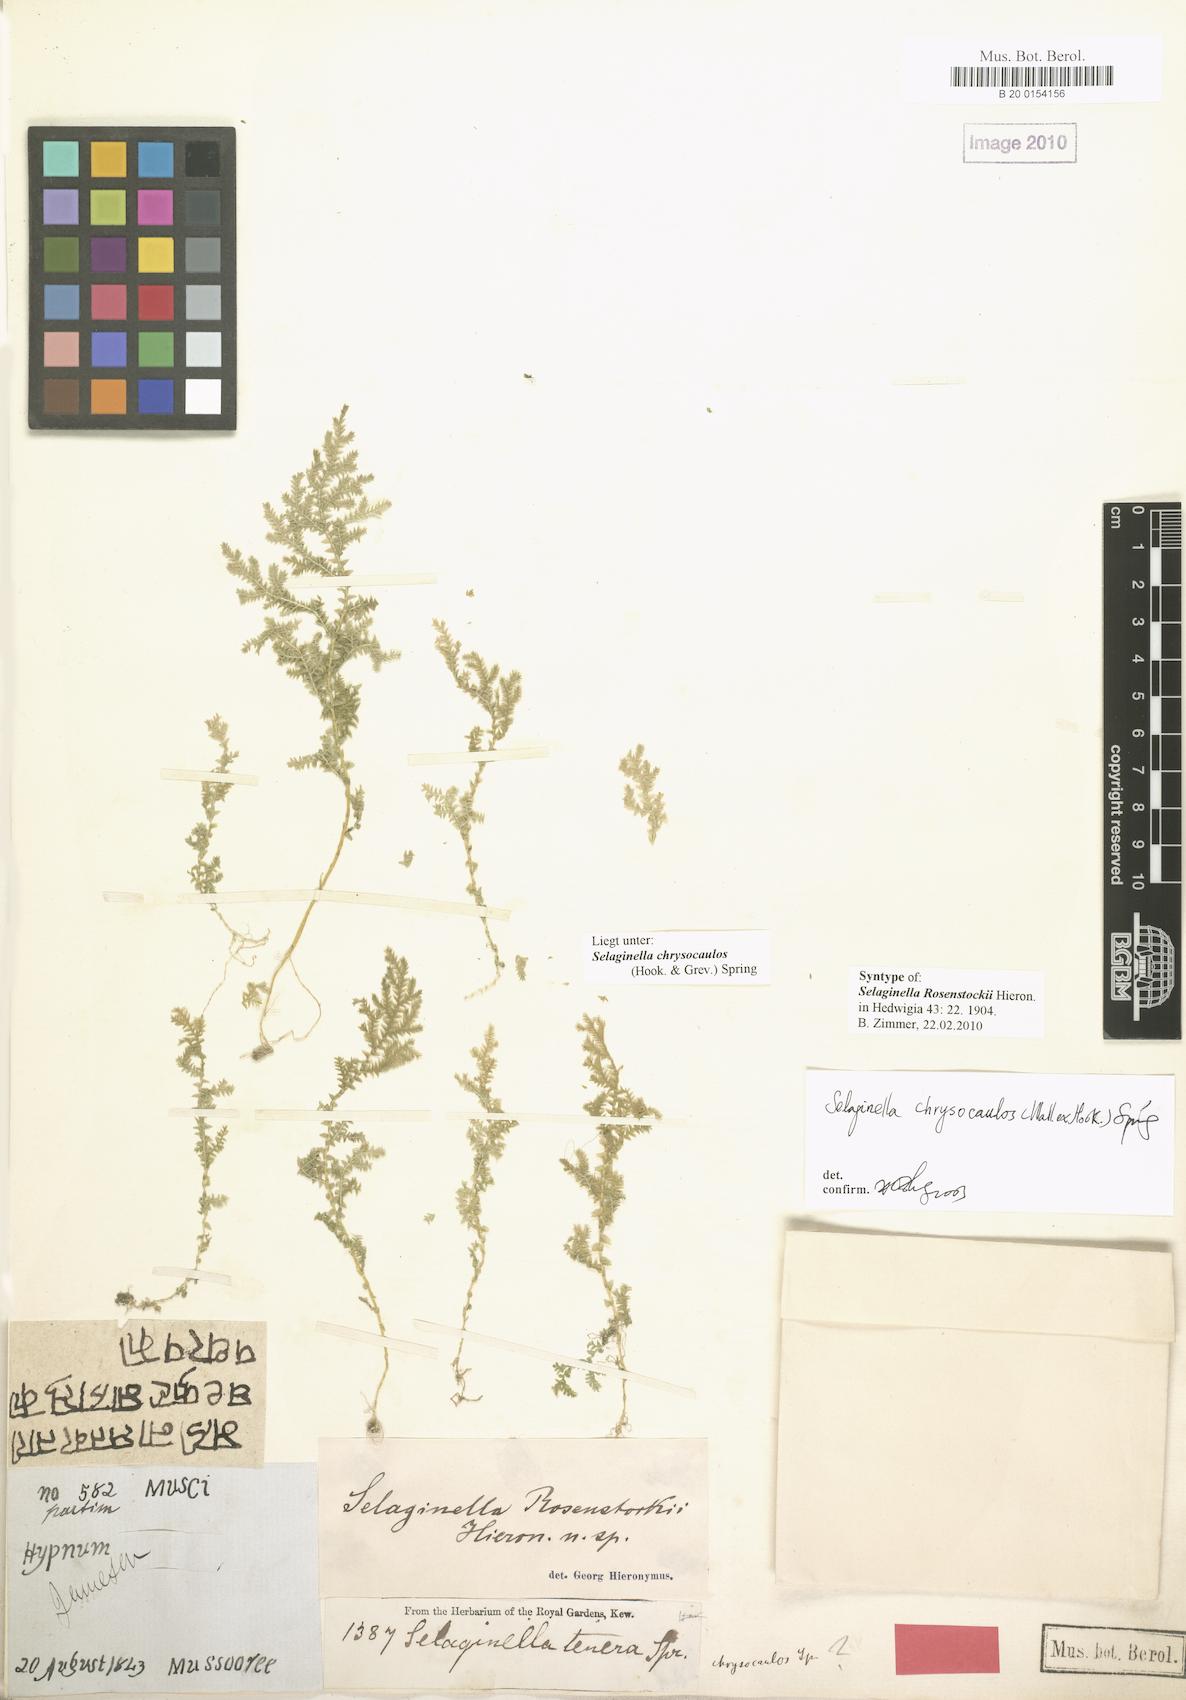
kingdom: Plantae
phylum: Tracheophyta
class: Lycopodiopsida
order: Selaginellales
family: Selaginellaceae
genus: Selaginella
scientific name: Selaginella chrysocaulos
